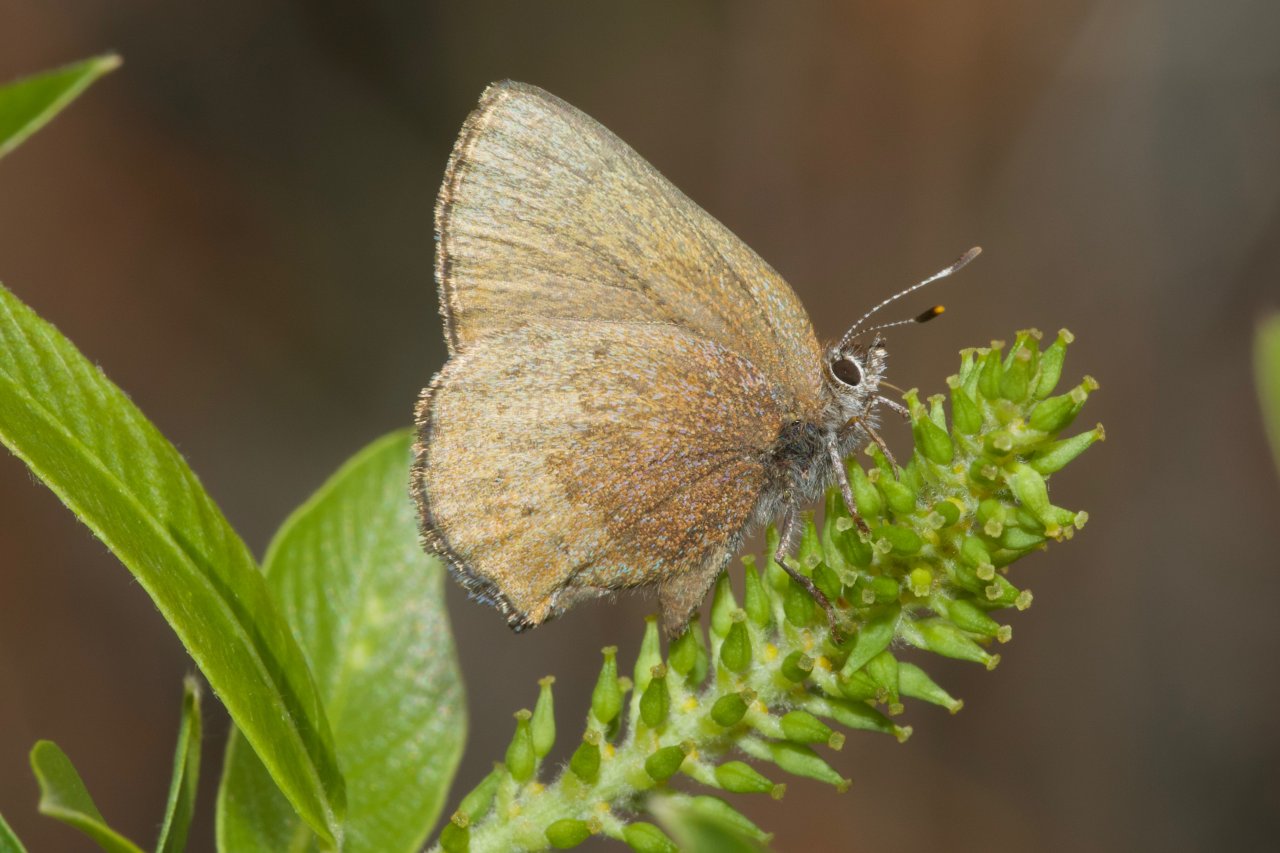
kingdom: Animalia
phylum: Arthropoda
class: Insecta
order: Lepidoptera
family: Lycaenidae
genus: Incisalia
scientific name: Incisalia irioides
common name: Brown Elfin
